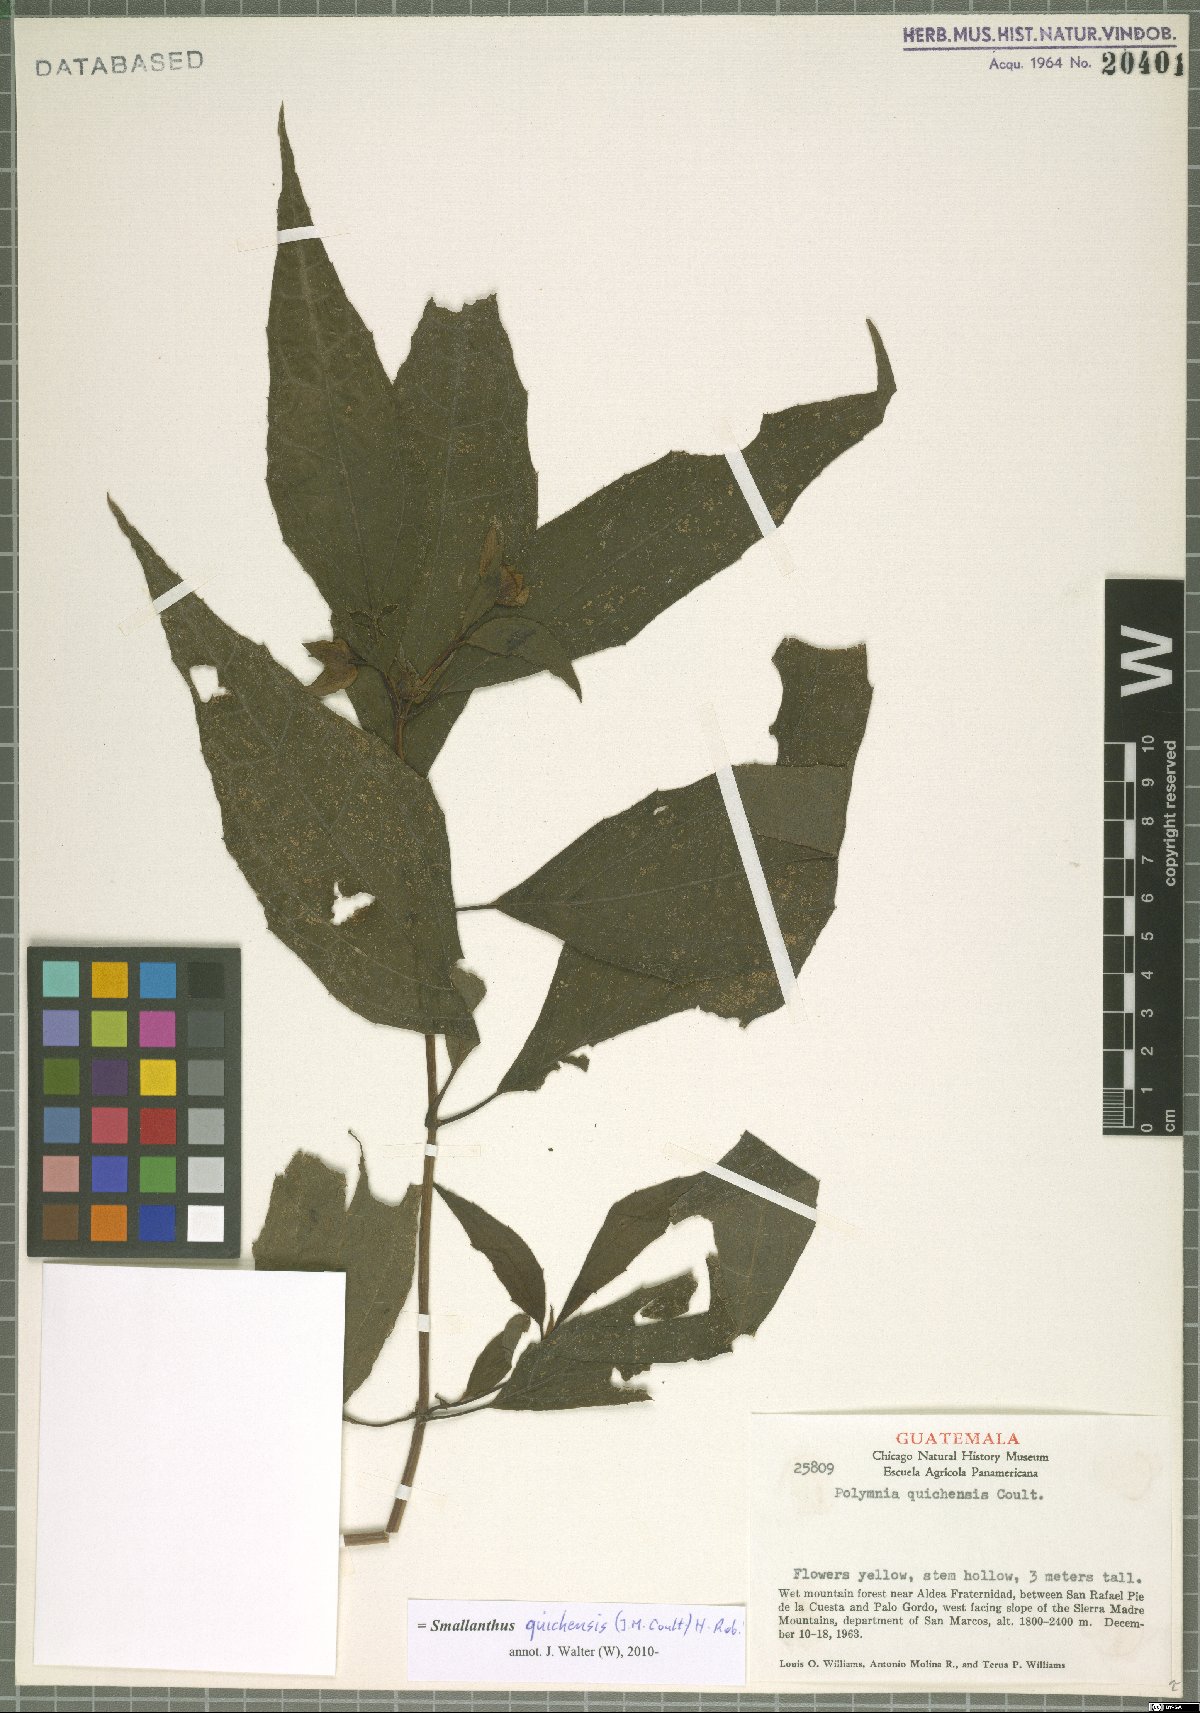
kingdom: Plantae
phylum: Tracheophyta
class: Magnoliopsida
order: Asterales
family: Asteraceae
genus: Smallanthus
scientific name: Smallanthus quichensis
